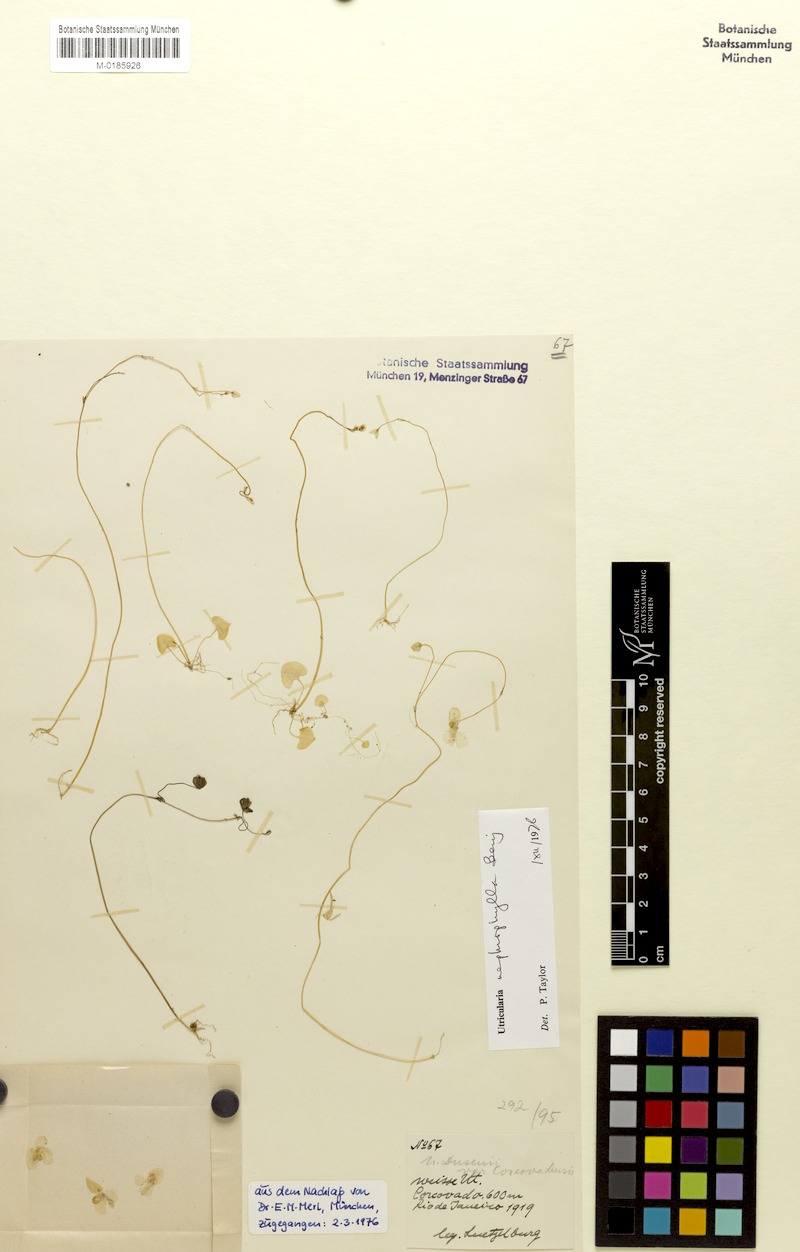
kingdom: Plantae
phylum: Tracheophyta
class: Magnoliopsida
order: Lamiales
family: Lentibulariaceae
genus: Utricularia
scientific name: Utricularia nephrophylla
